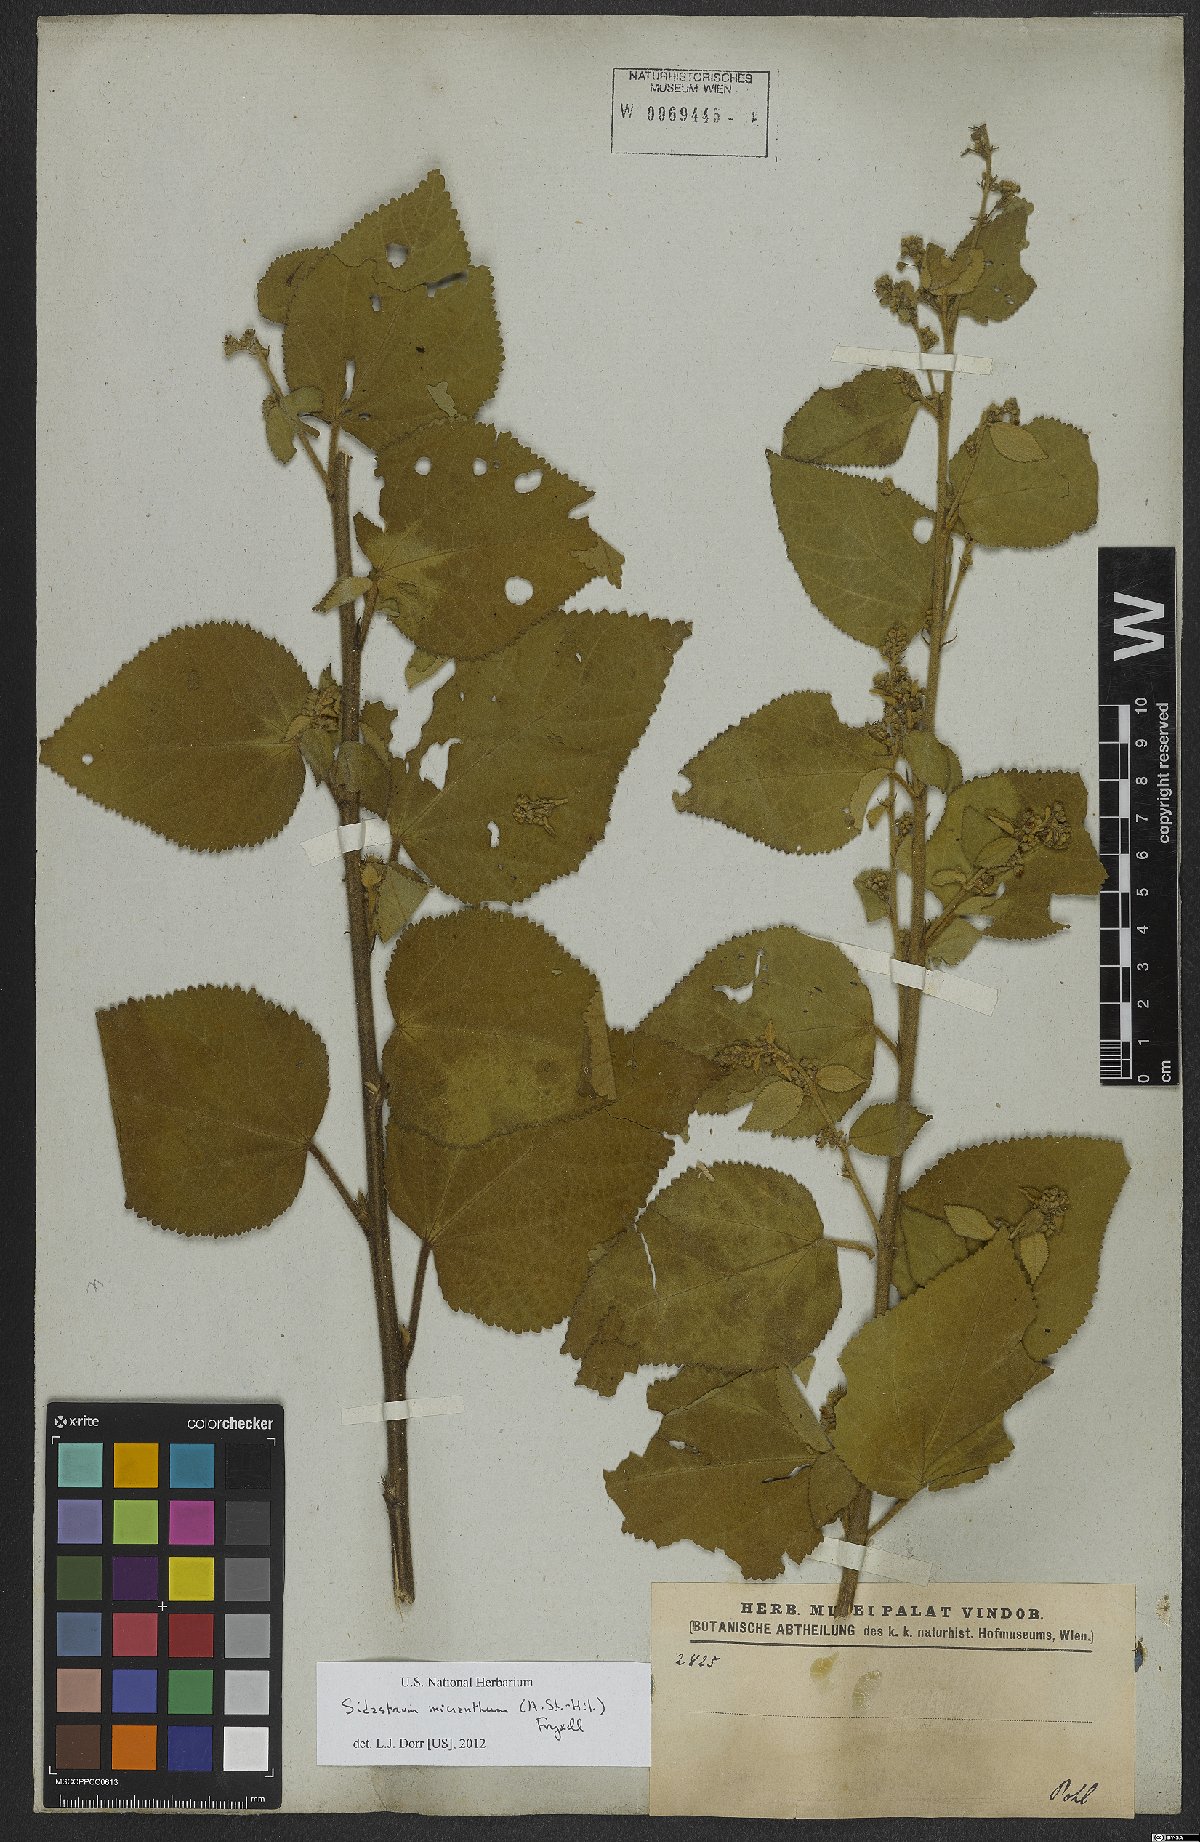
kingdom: Plantae
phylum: Tracheophyta
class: Magnoliopsida
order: Malvales
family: Malvaceae
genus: Sidastrum
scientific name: Sidastrum micranthum
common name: Dainty sandmallow
